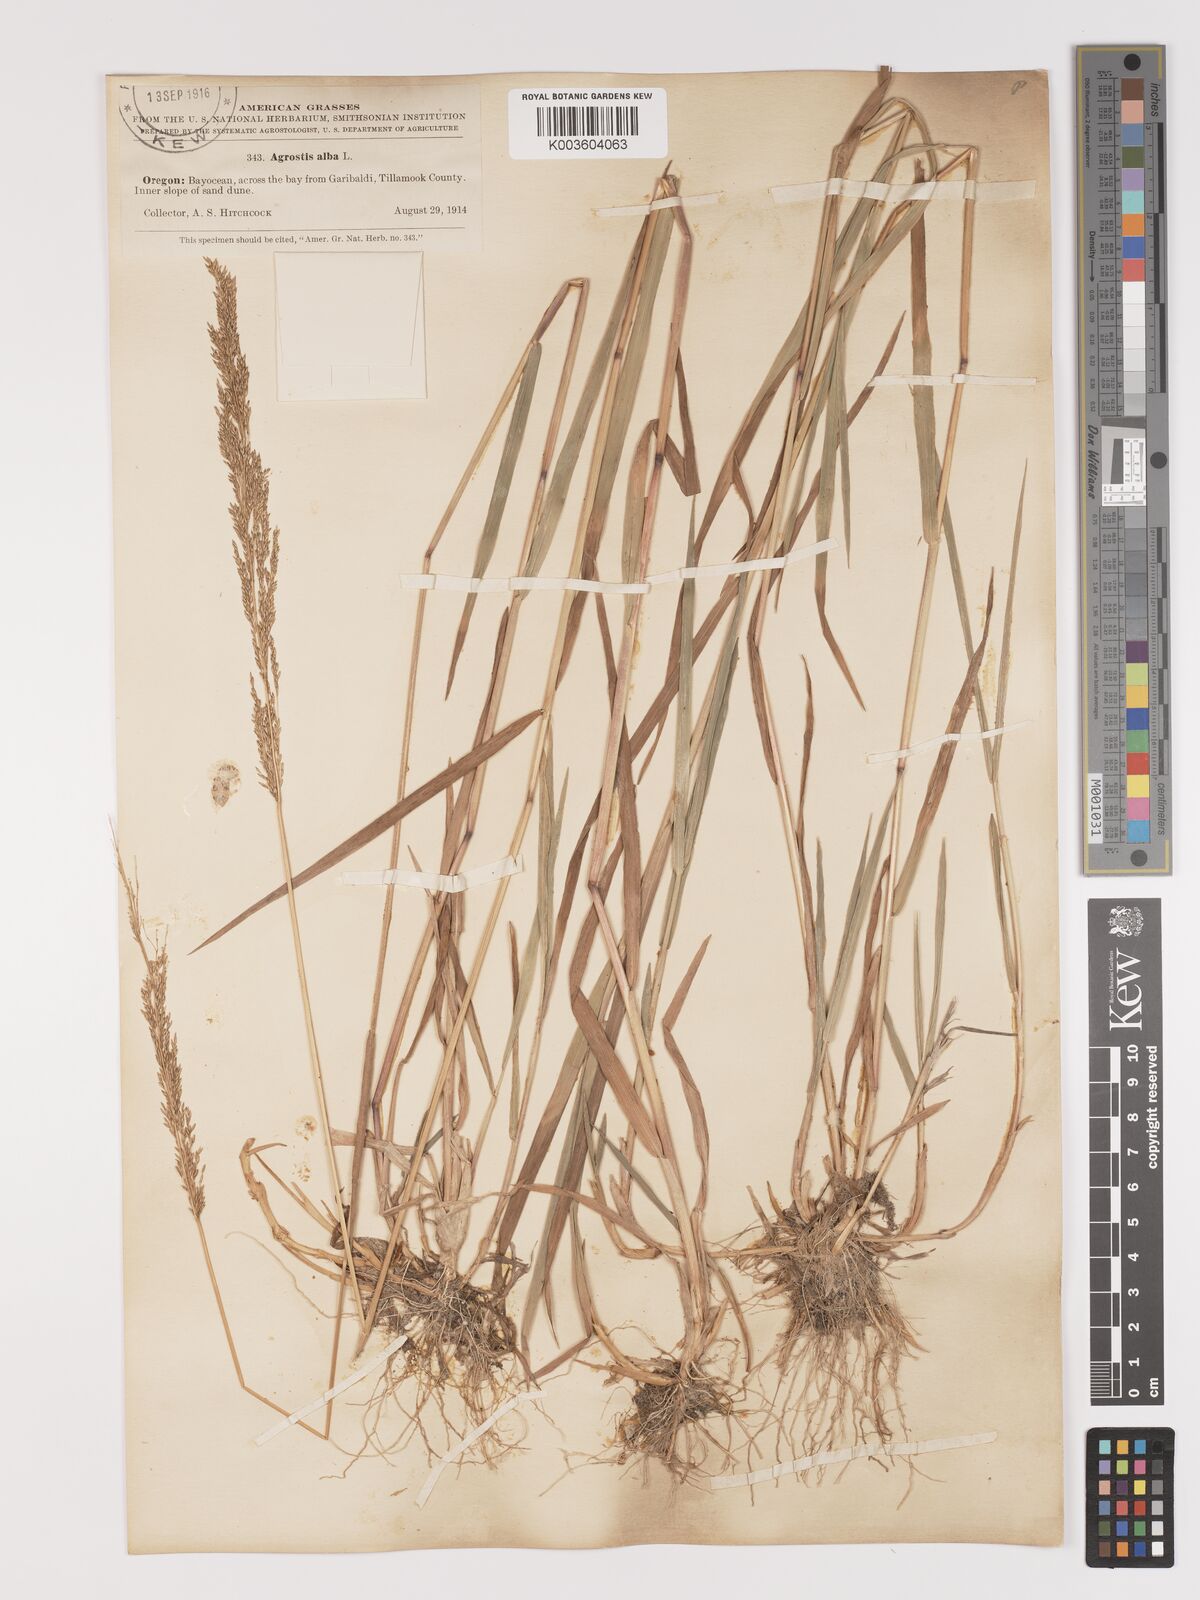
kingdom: Plantae
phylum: Tracheophyta
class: Liliopsida
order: Poales
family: Poaceae
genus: Agrostis
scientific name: Agrostis gigantea
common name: Black bent
